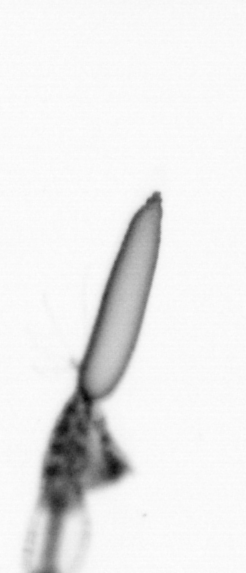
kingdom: Animalia
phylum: Arthropoda
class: Copepoda
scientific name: Copepoda
